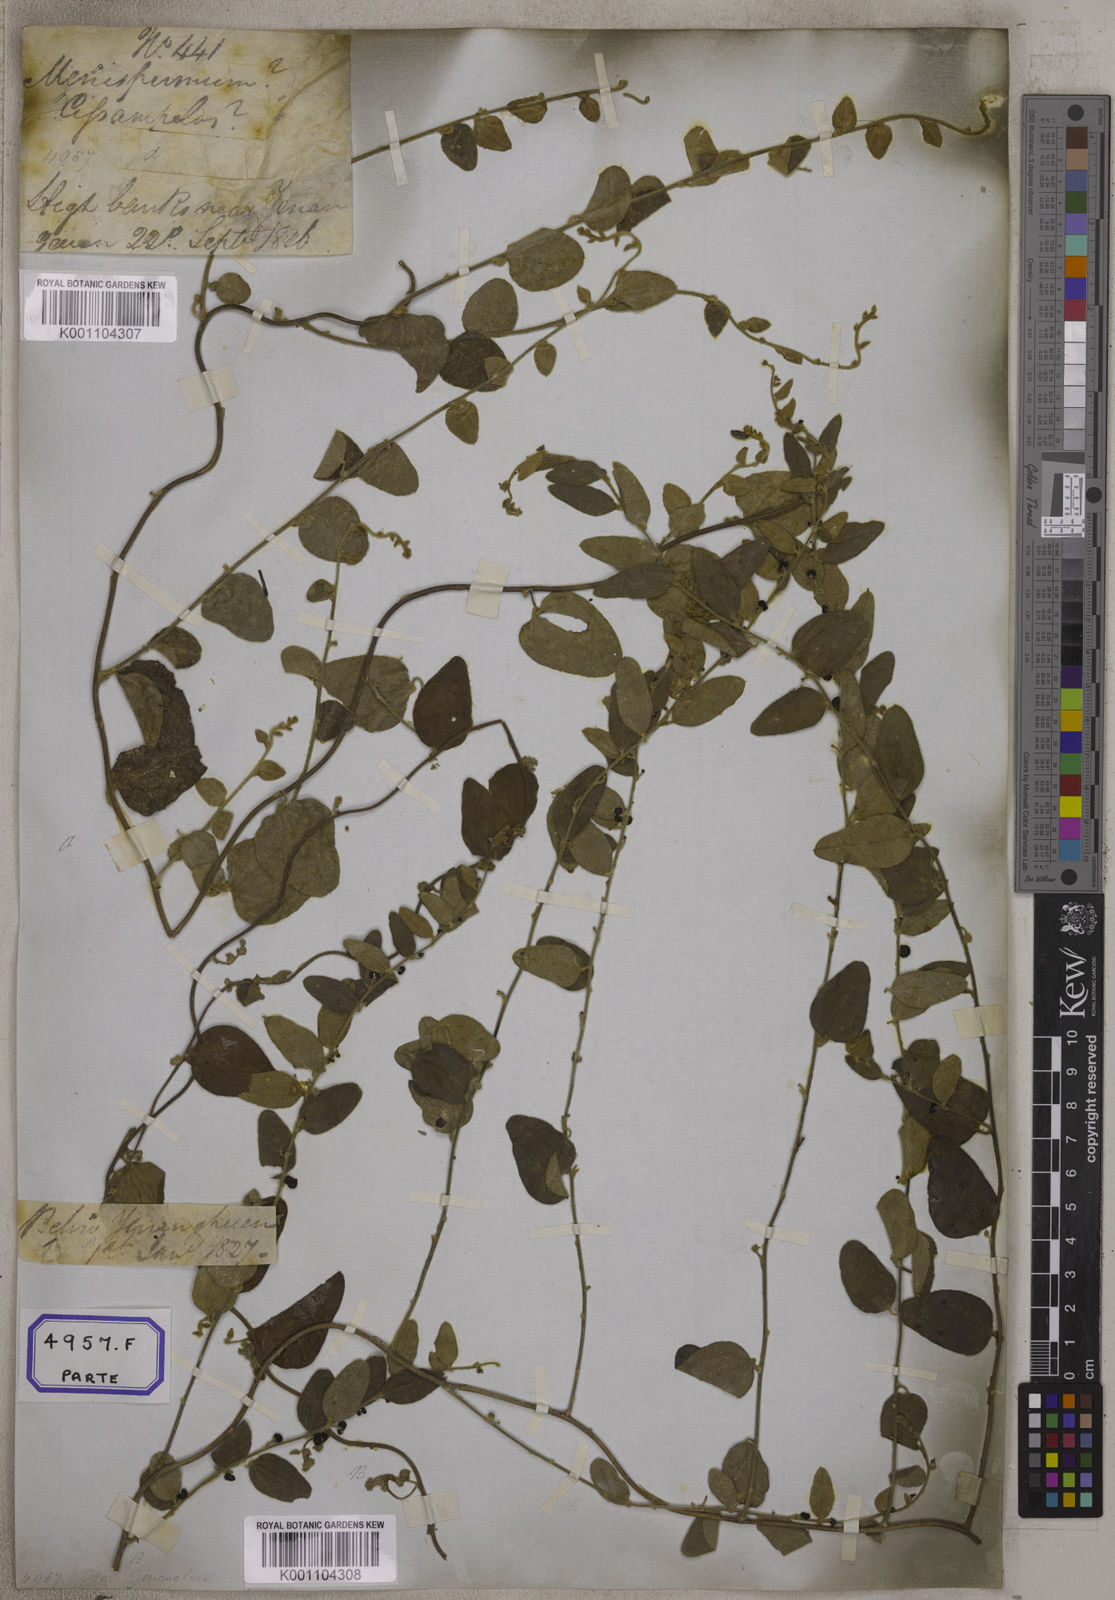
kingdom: Plantae
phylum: Tracheophyta
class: Magnoliopsida
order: Ranunculales
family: Menispermaceae
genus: Cocculus
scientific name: Cocculus hirsutus
